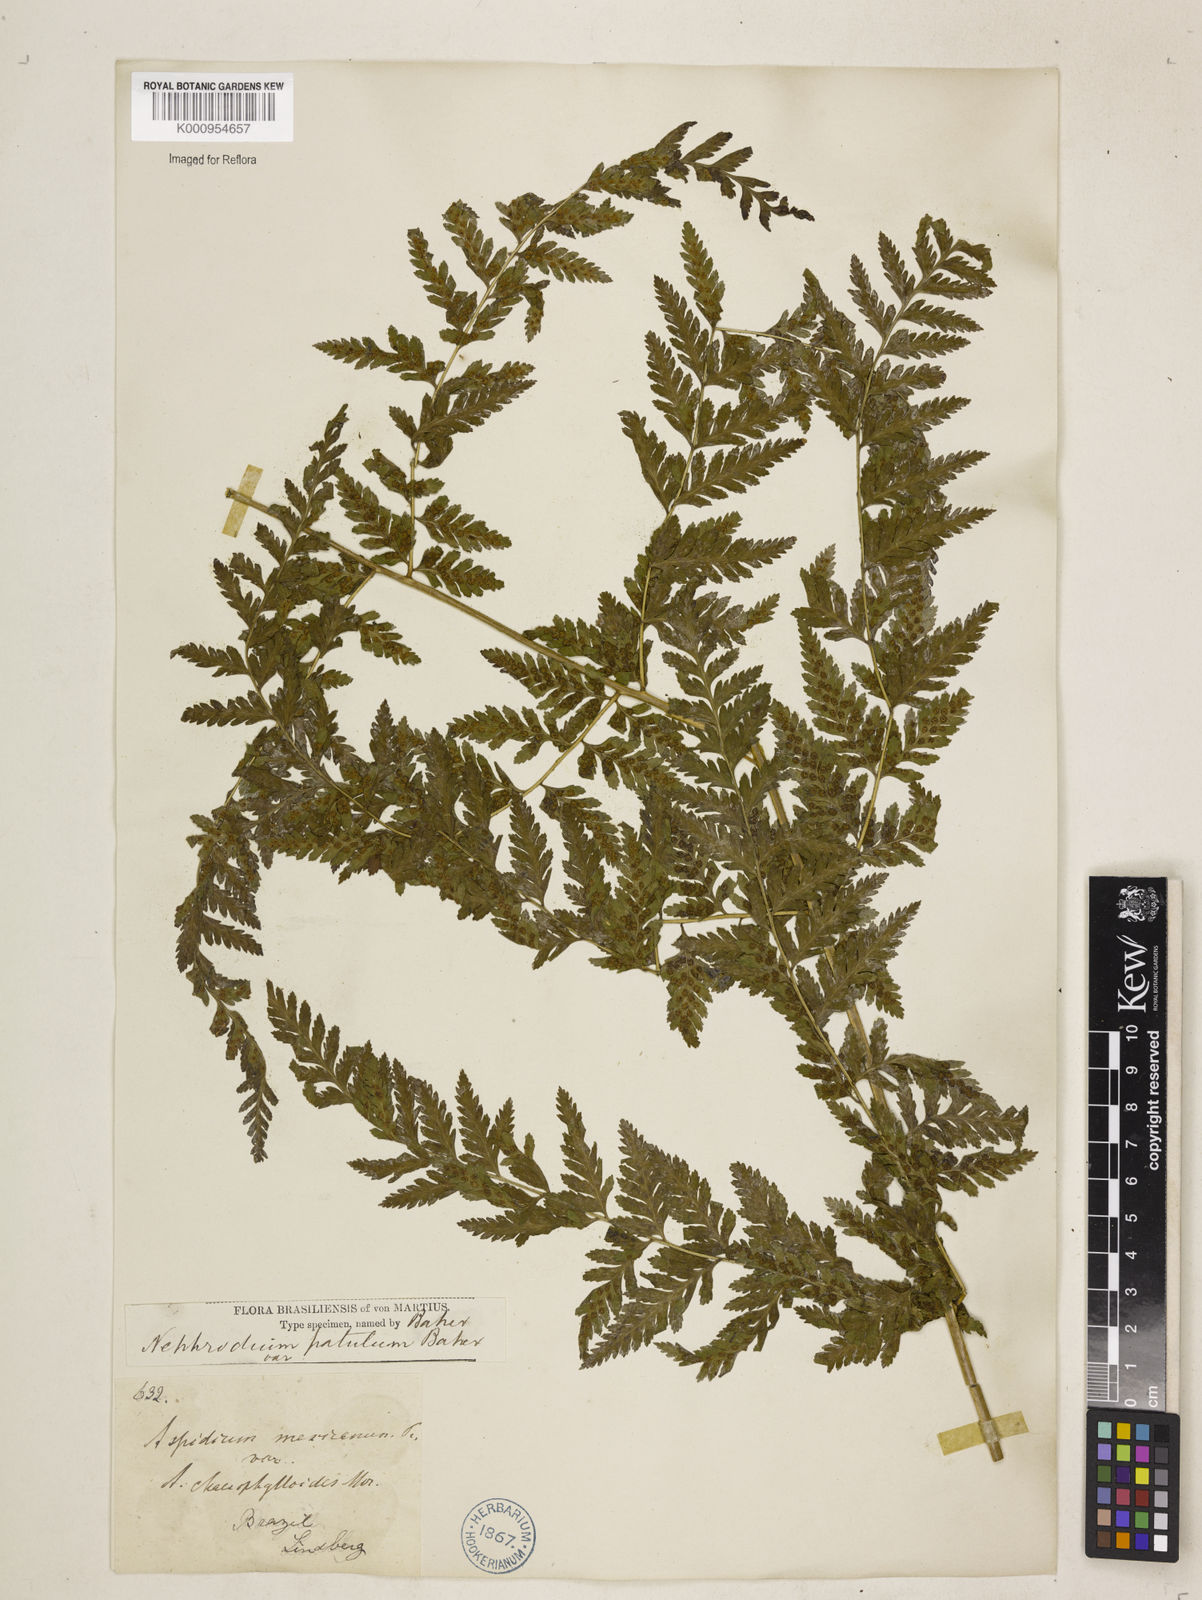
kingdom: Plantae
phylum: Tracheophyta
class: Polypodiopsida
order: Polypodiales
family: Dryopteridaceae
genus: Dryopteris
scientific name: Dryopteris patula
